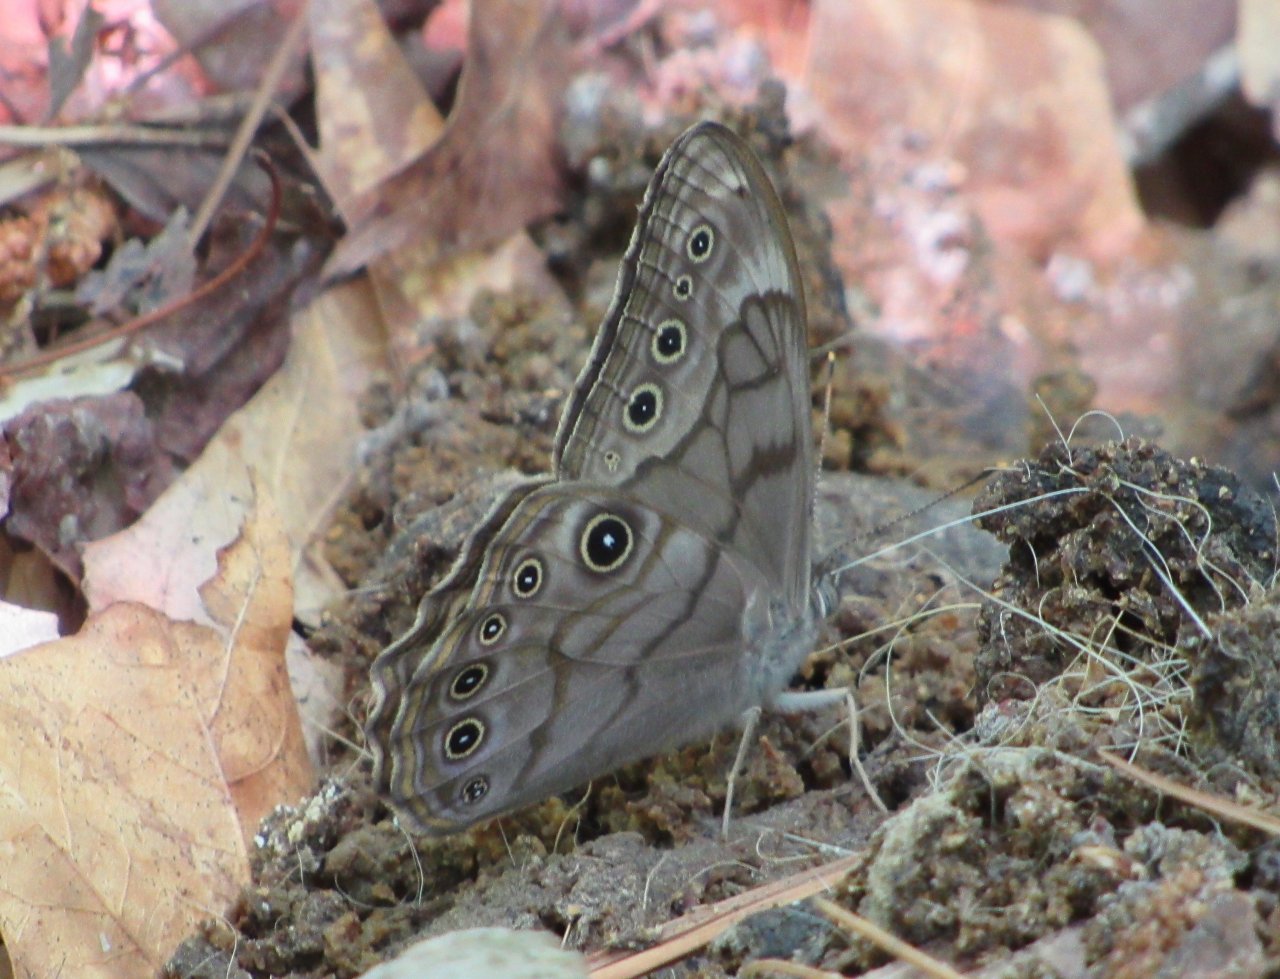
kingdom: Animalia
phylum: Arthropoda
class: Insecta
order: Lepidoptera
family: Nymphalidae
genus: Lethe
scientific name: Lethe creola
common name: Creole Pearly-Eye
